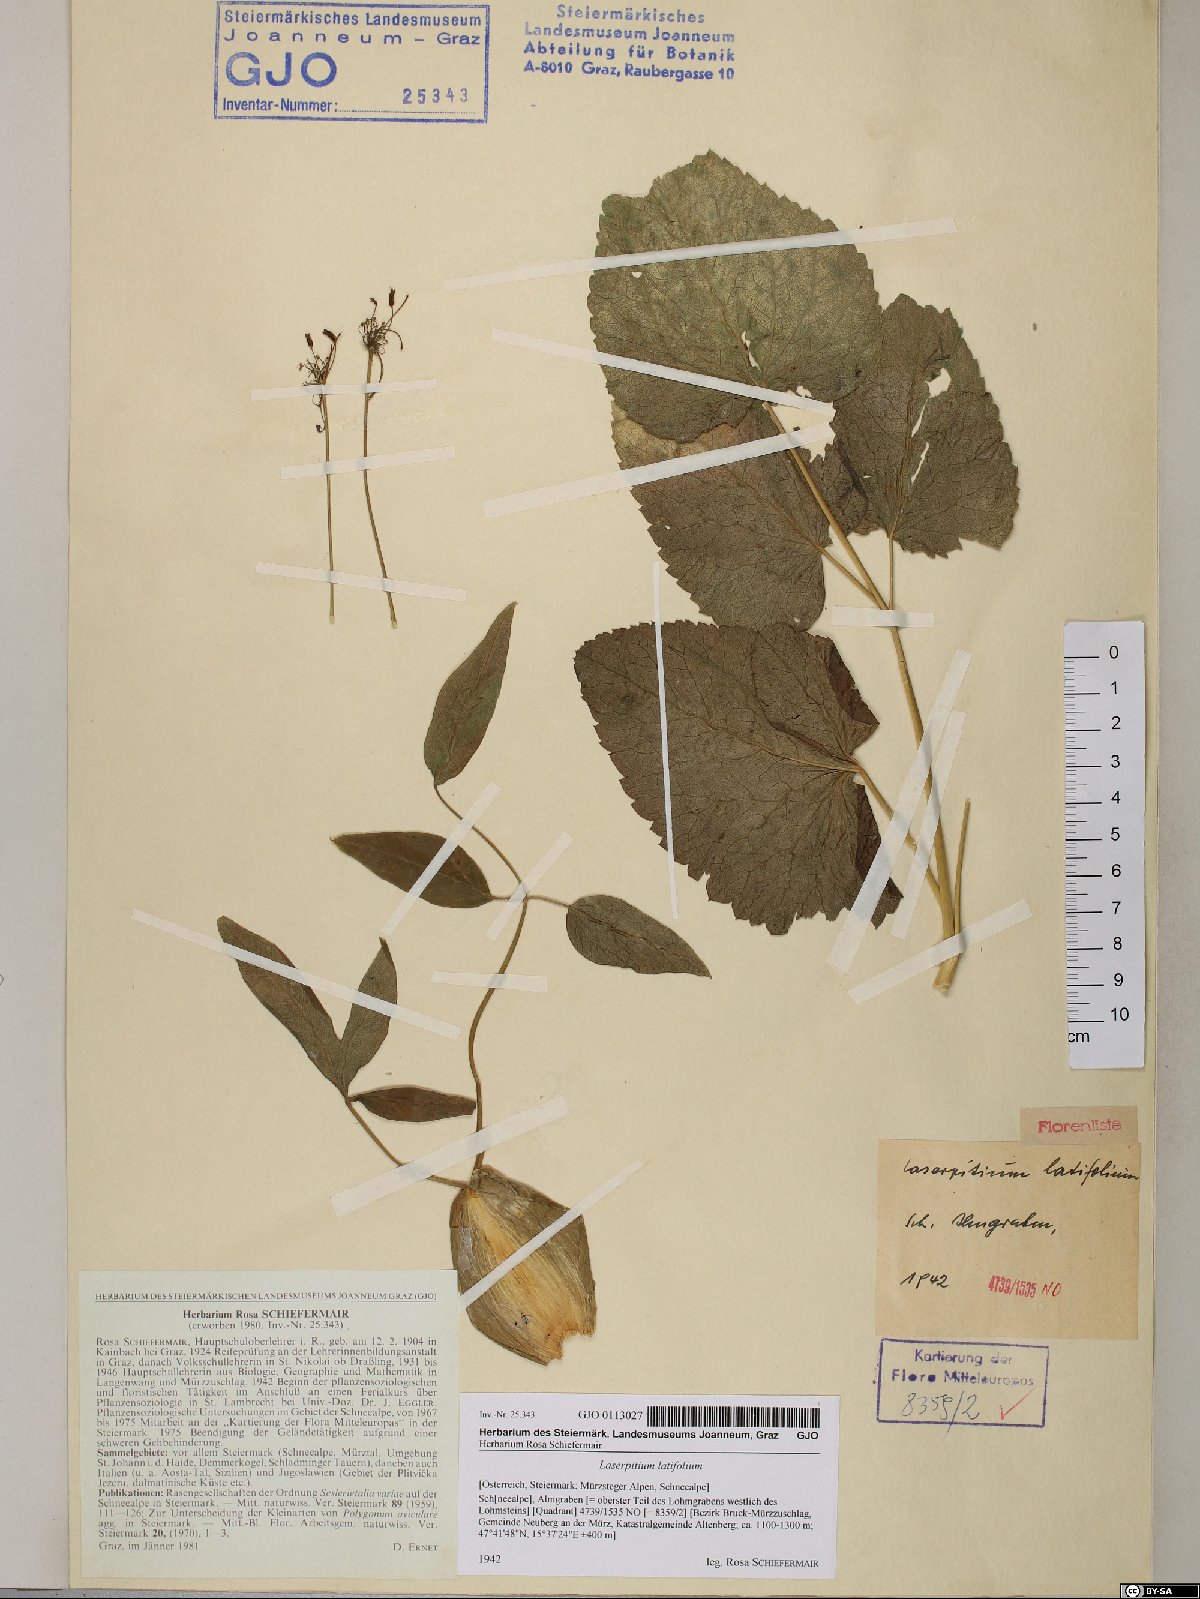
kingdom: Plantae
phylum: Tracheophyta
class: Magnoliopsida
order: Apiales
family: Apiaceae
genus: Laserpitium
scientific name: Laserpitium latifolium
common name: Broadleaf sermountain
